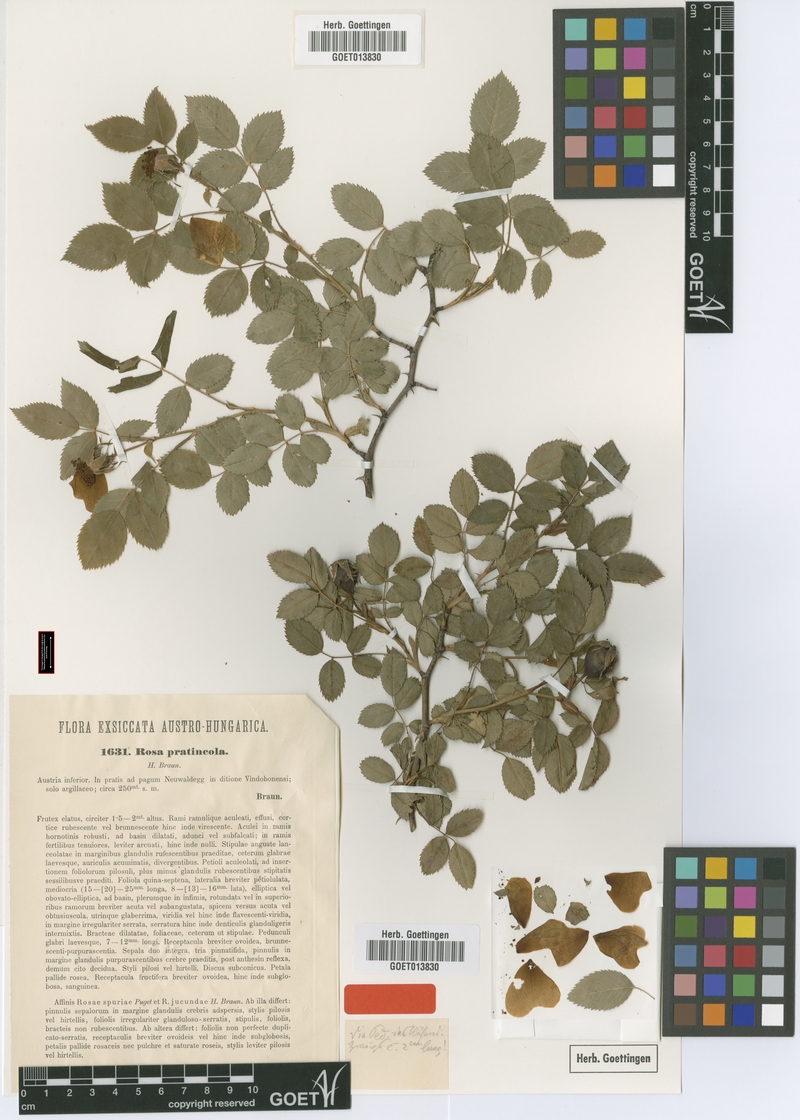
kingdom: Plantae
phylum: Tracheophyta
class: Magnoliopsida
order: Rosales
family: Rosaceae
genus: Rosa
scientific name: Rosa canina
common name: Dog rose
